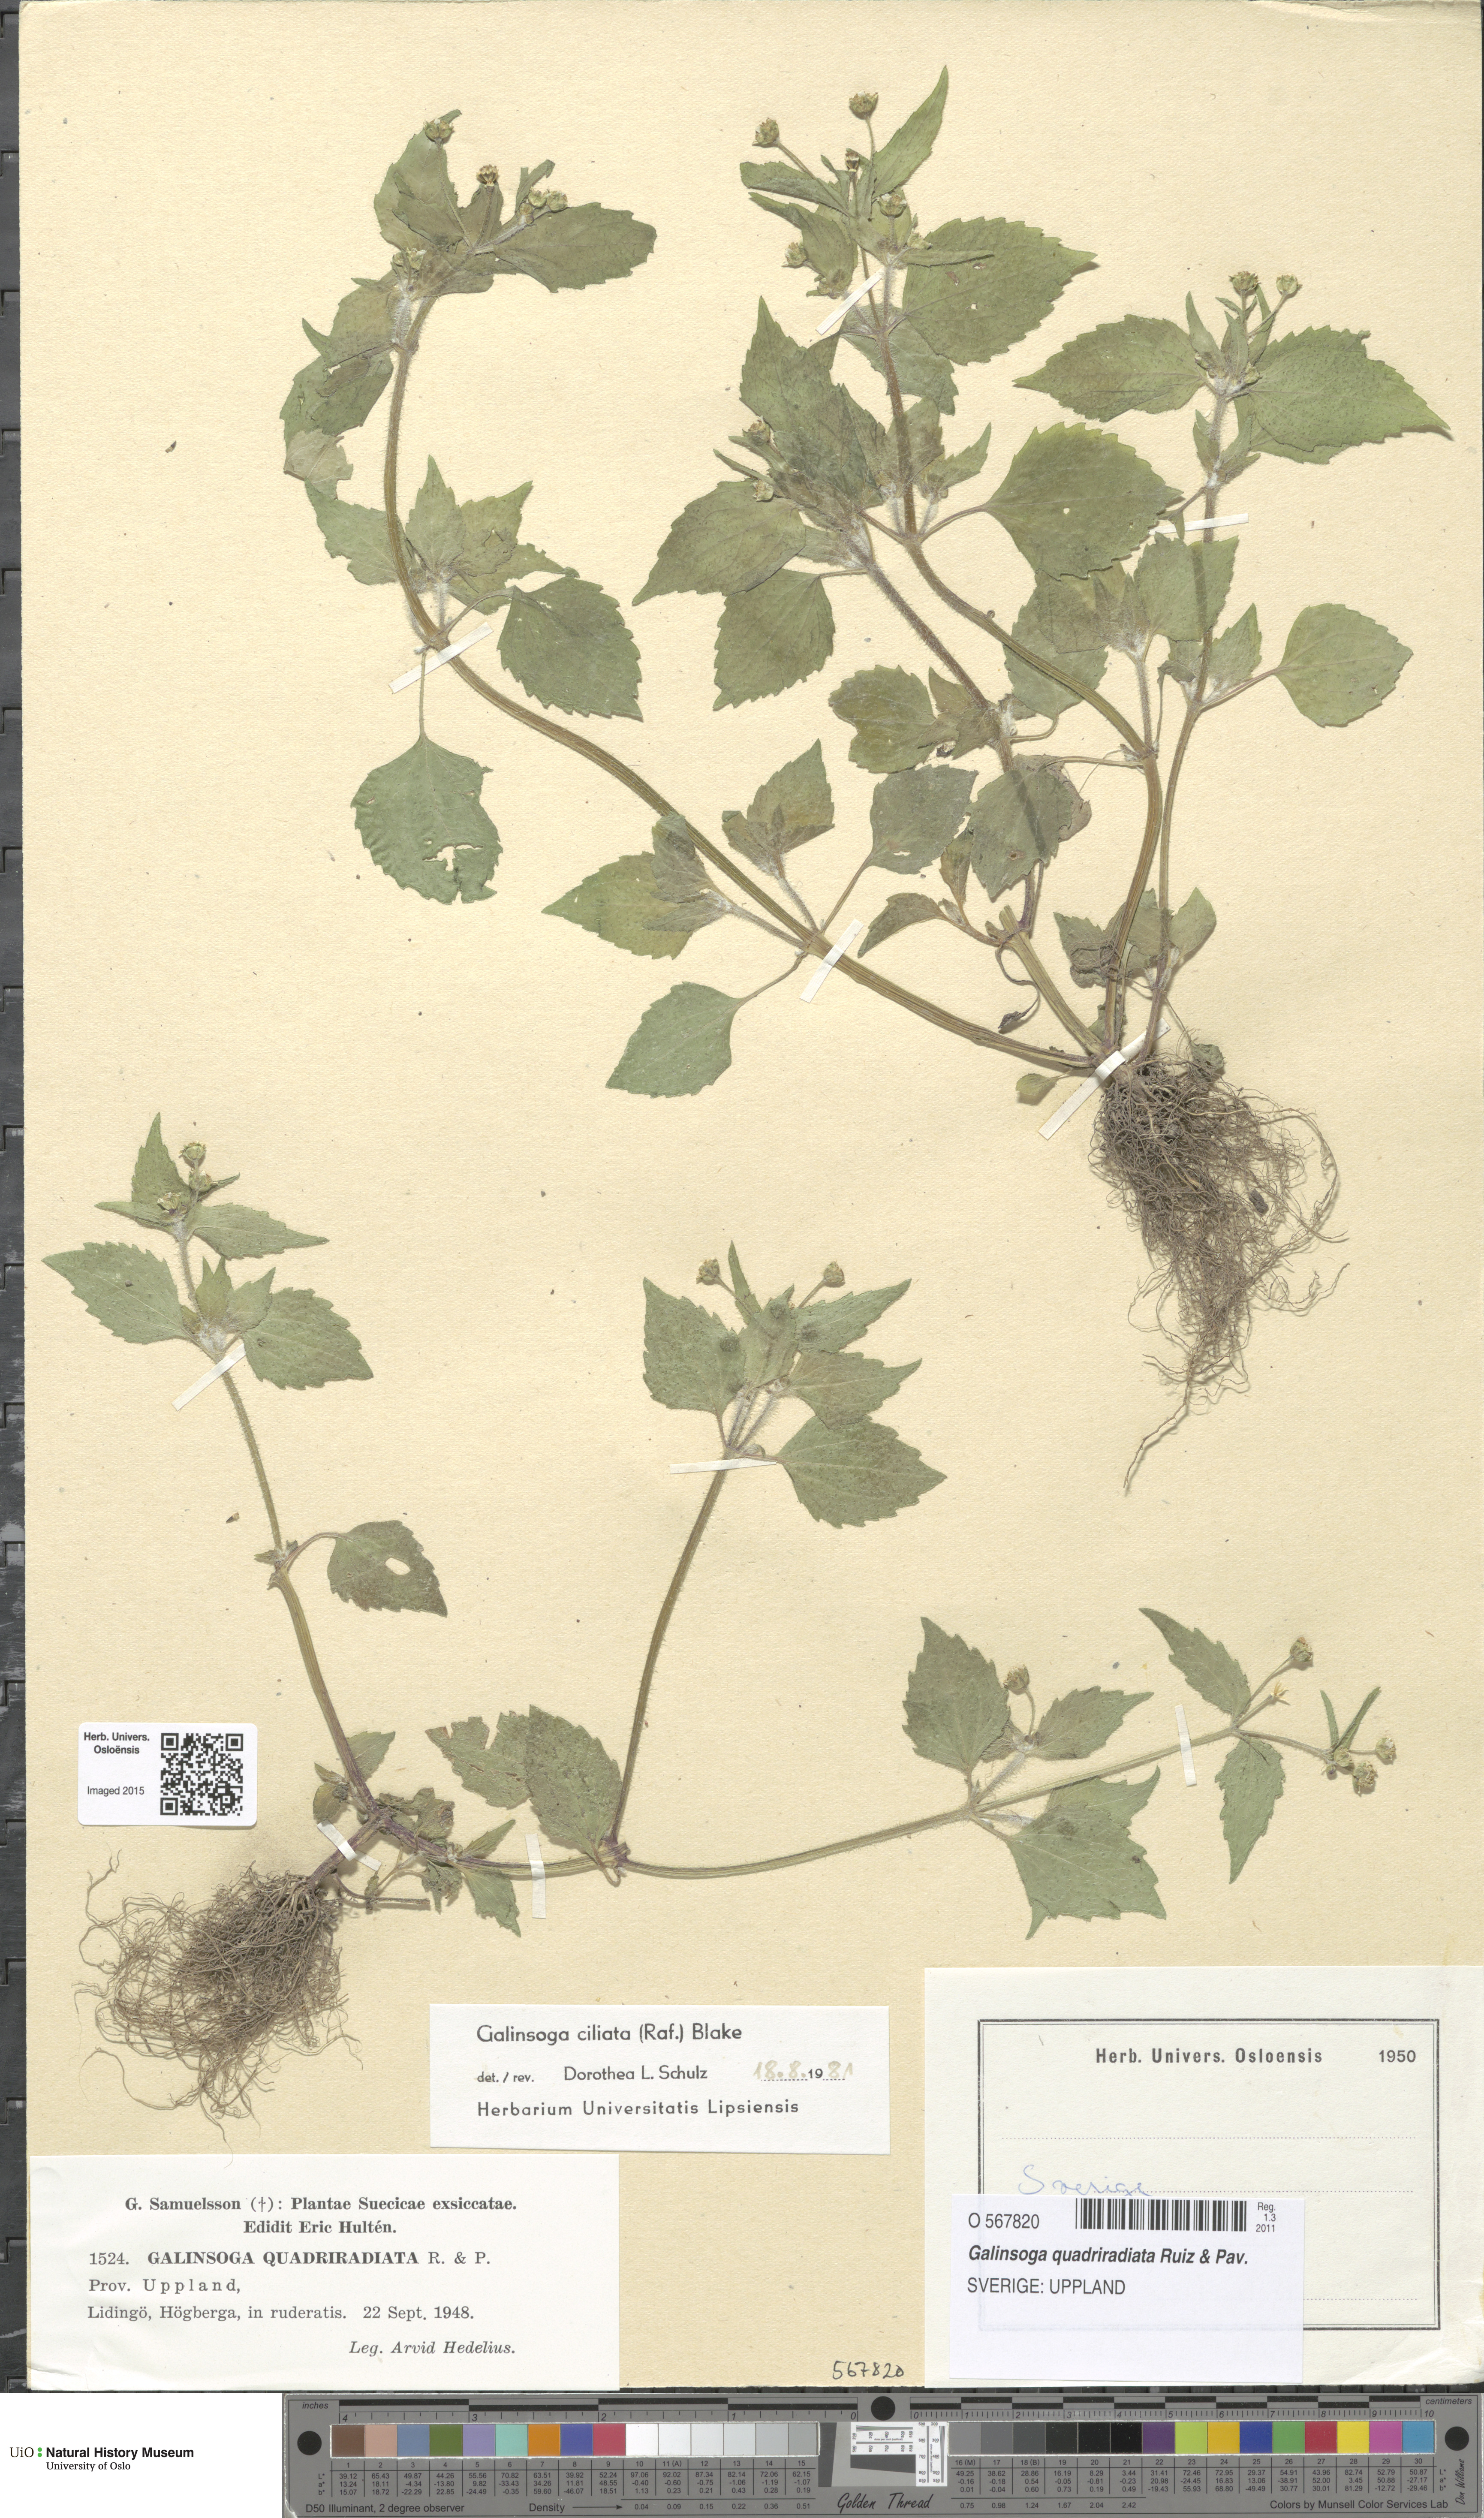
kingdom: Plantae
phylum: Tracheophyta
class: Magnoliopsida
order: Asterales
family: Asteraceae
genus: Galinsoga
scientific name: Galinsoga quadriradiata
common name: Shaggy soldier
